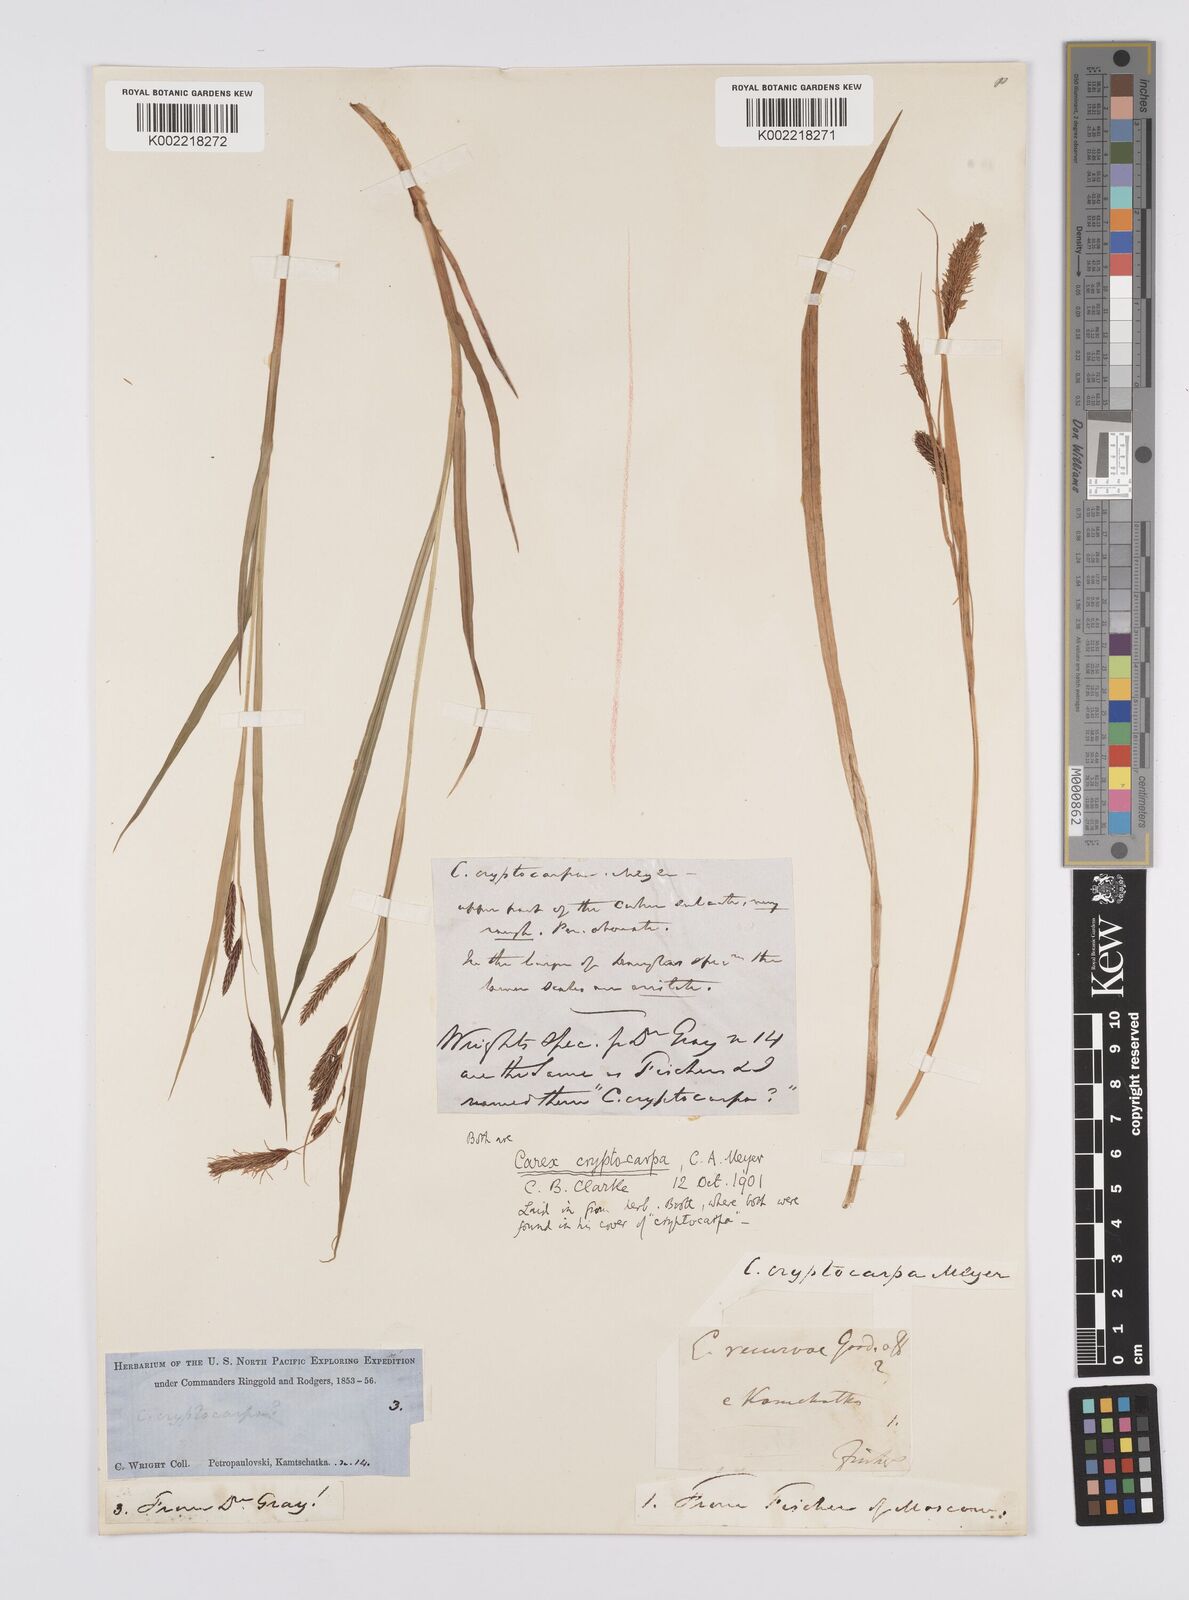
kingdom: Plantae
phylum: Tracheophyta
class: Liliopsida
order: Poales
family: Cyperaceae
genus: Carex
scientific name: Carex lyngbyei
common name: Lyngbye's sedge
